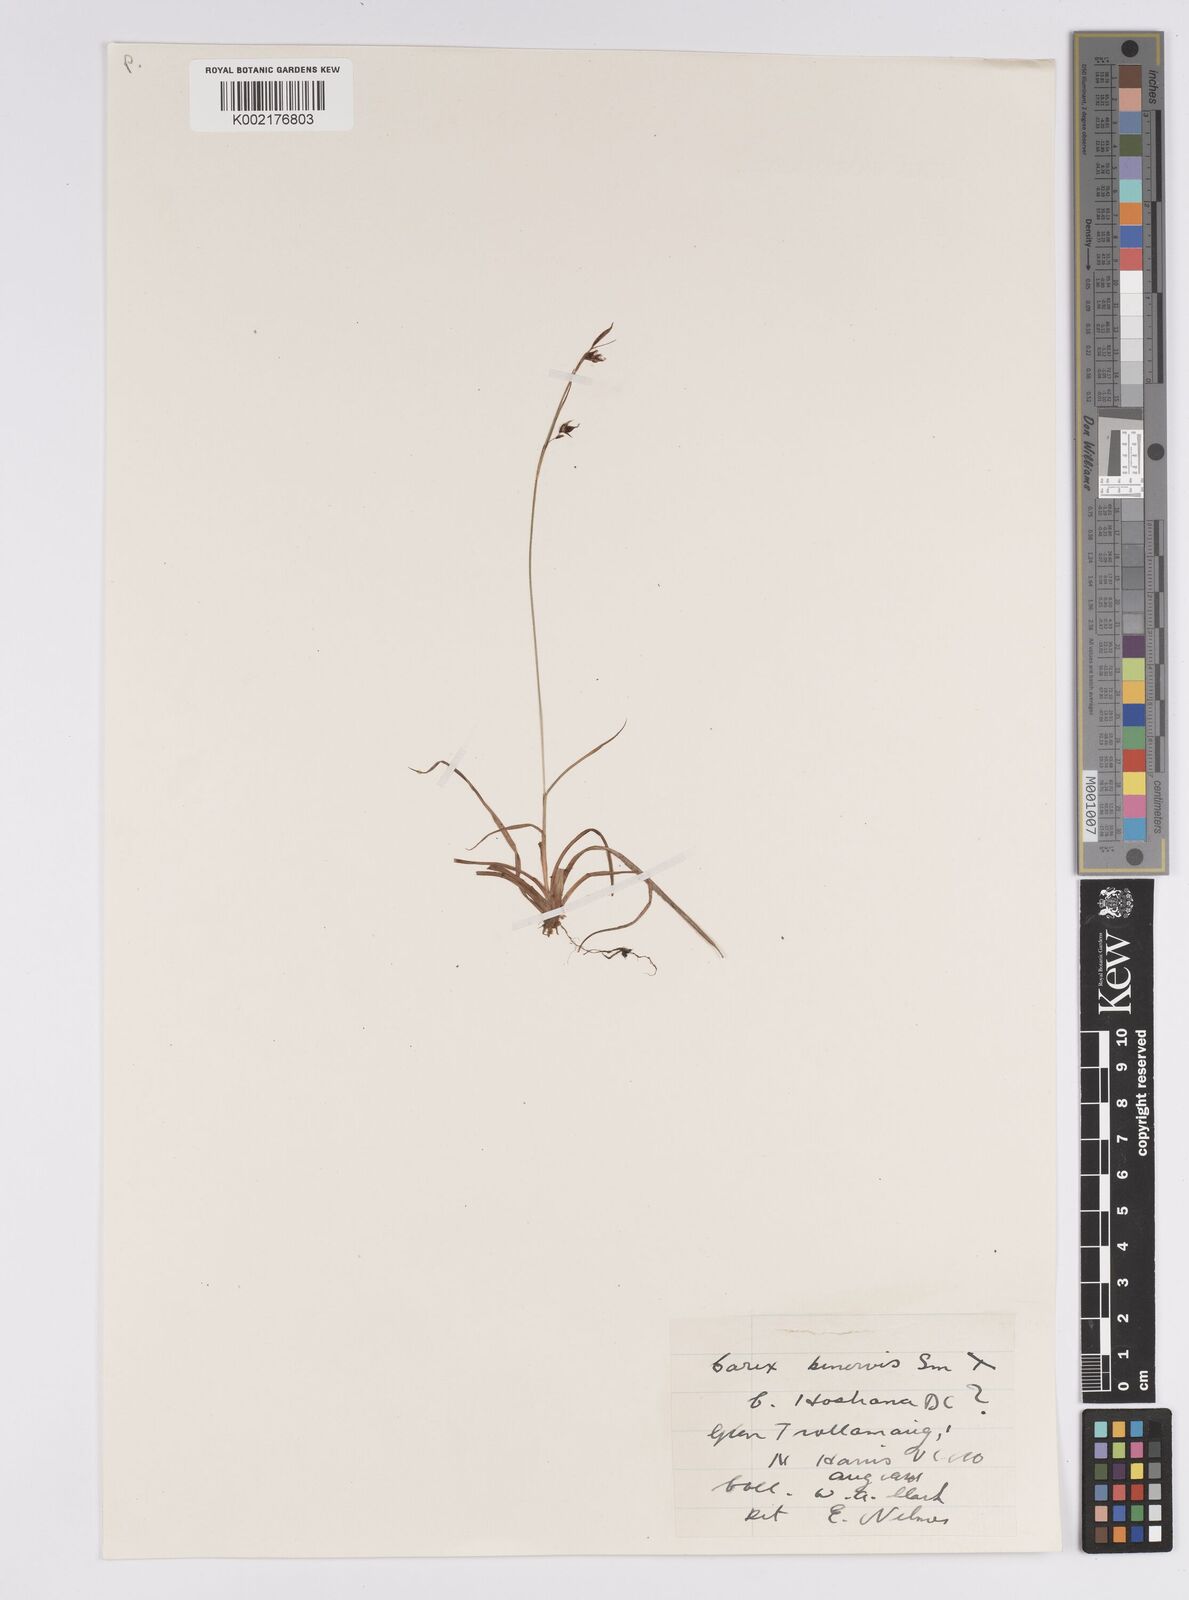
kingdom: Plantae
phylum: Tracheophyta
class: Liliopsida
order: Poales
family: Cyperaceae
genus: Carex
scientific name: Carex binervis
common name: Green-ribbed sedge
